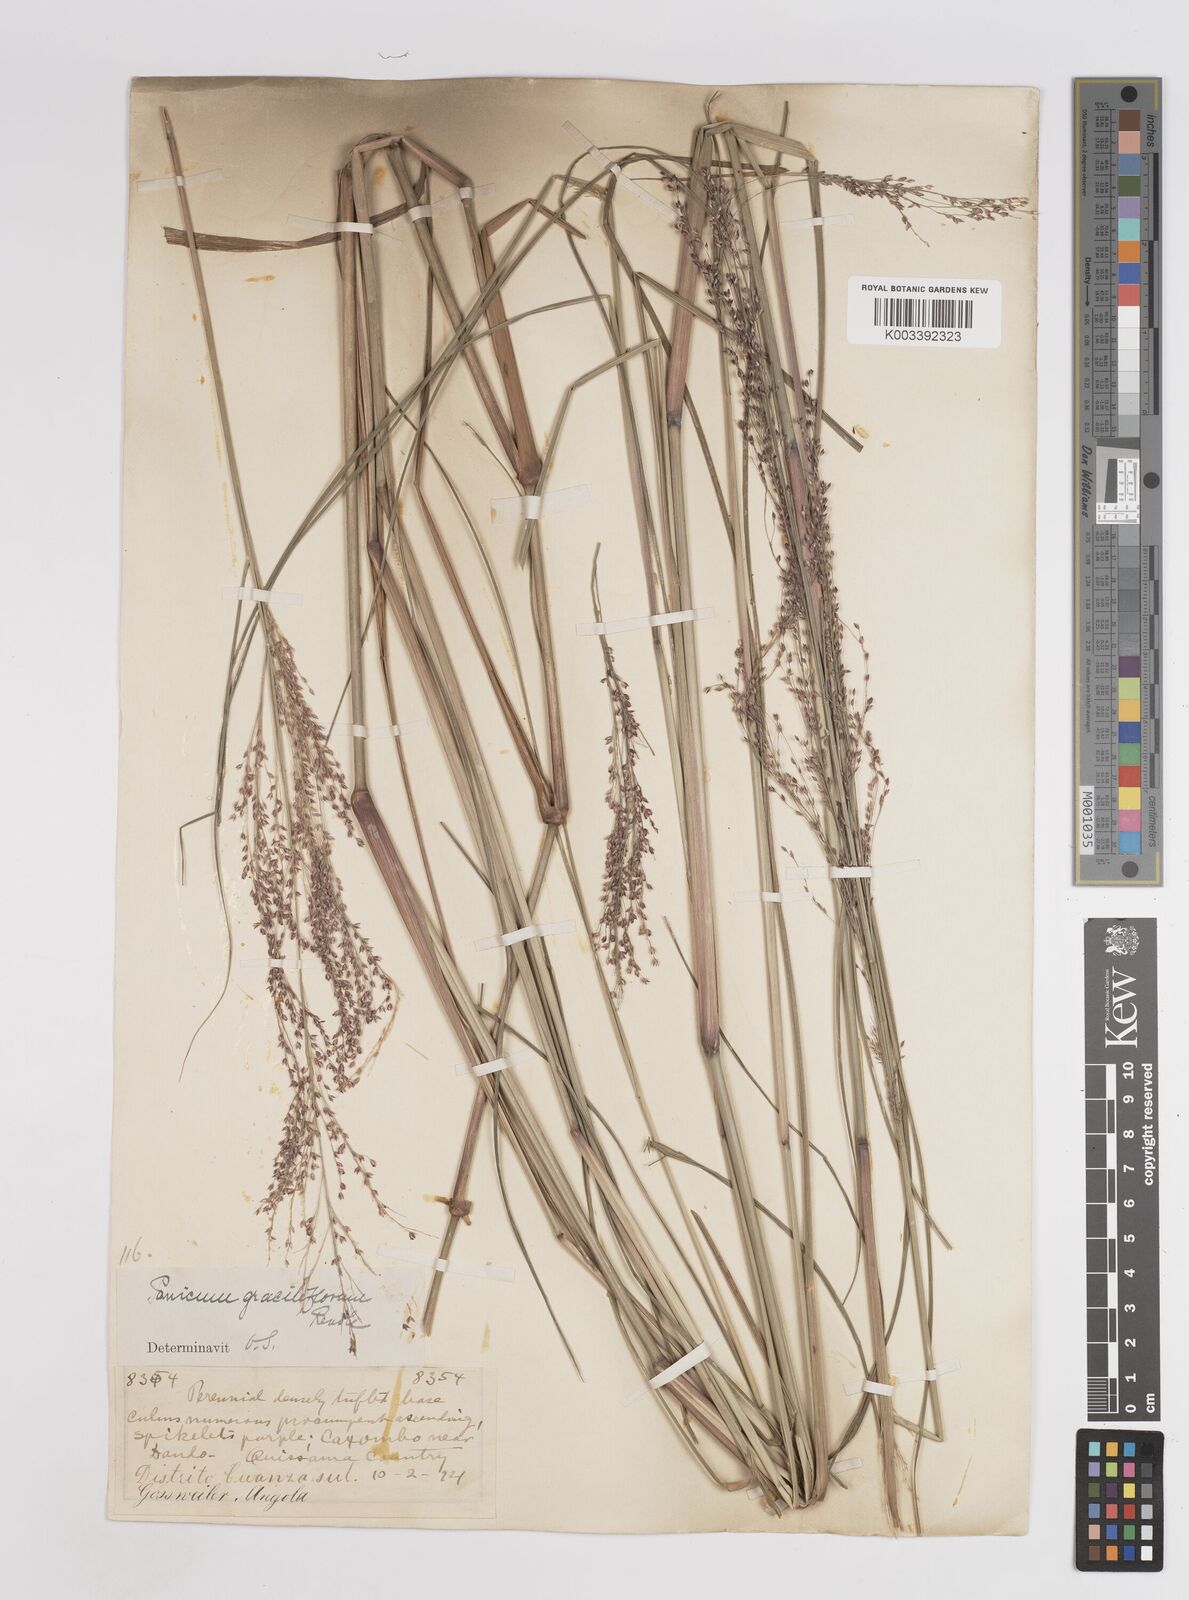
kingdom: Plantae
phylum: Tracheophyta
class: Liliopsida
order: Poales
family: Poaceae
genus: Panicum
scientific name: Panicum fluviicola
